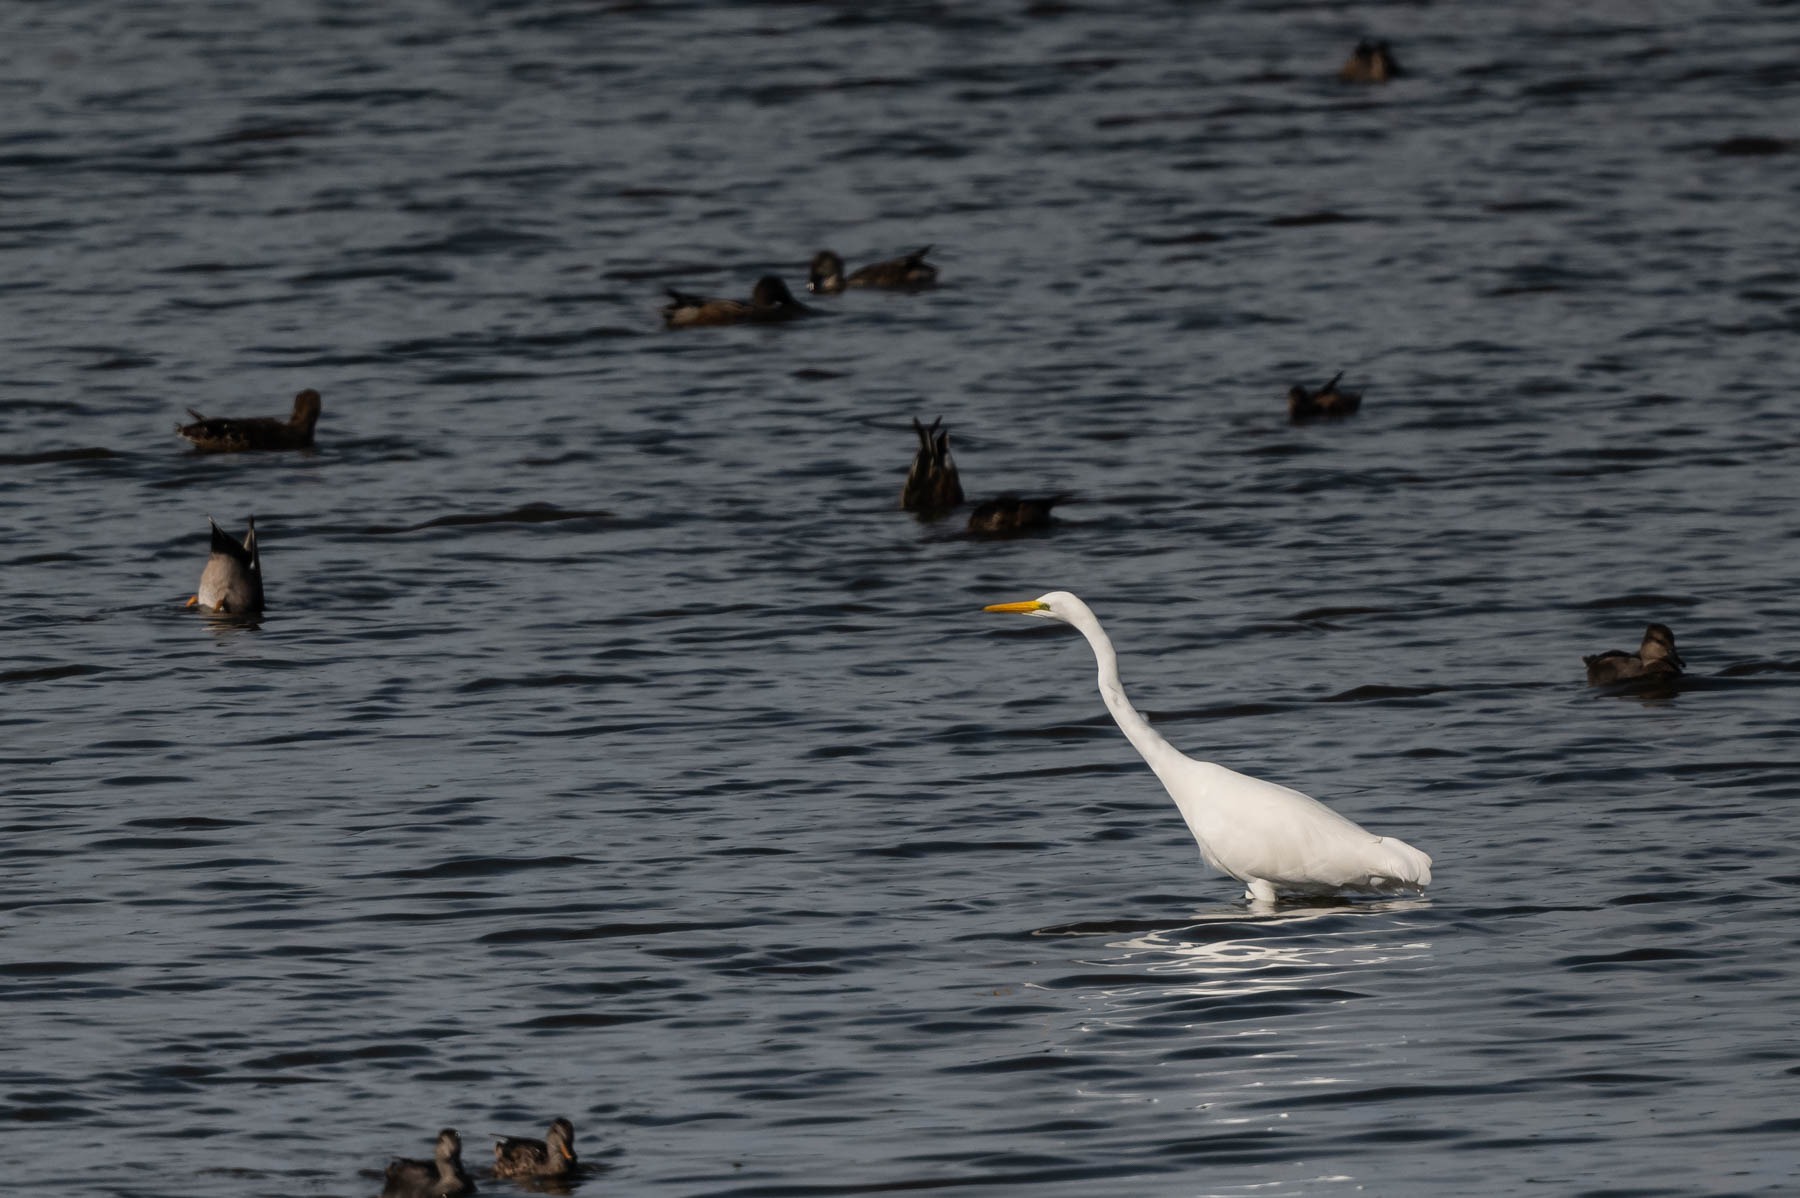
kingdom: Animalia
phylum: Chordata
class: Aves
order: Pelecaniformes
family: Ardeidae
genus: Ardea
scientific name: Ardea alba
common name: Sølvhejre
